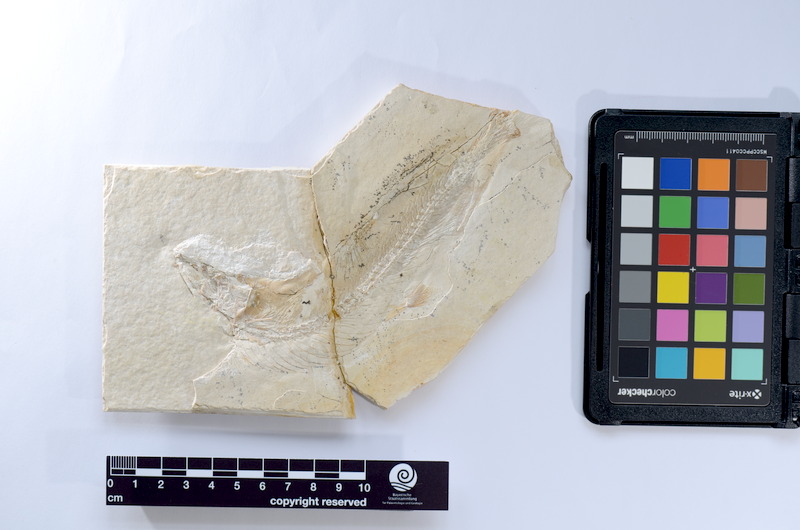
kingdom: Animalia
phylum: Chordata
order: Elopiformes
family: Anaethalionidae
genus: Anaethalion
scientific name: Anaethalion
